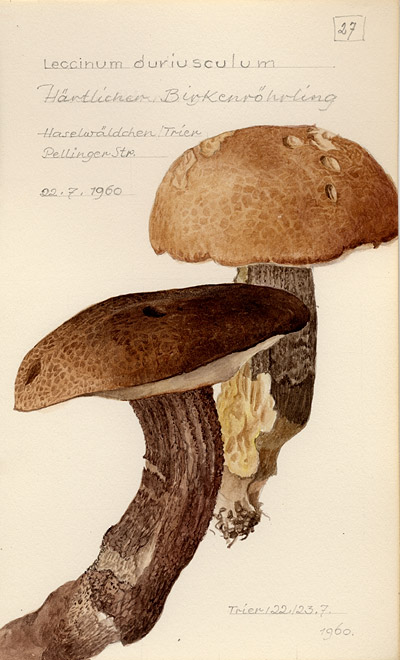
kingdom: Fungi
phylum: Basidiomycota
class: Agaricomycetes
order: Boletales
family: Boletaceae
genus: Leccinum
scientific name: Leccinum duriusculum
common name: Slate bolete
